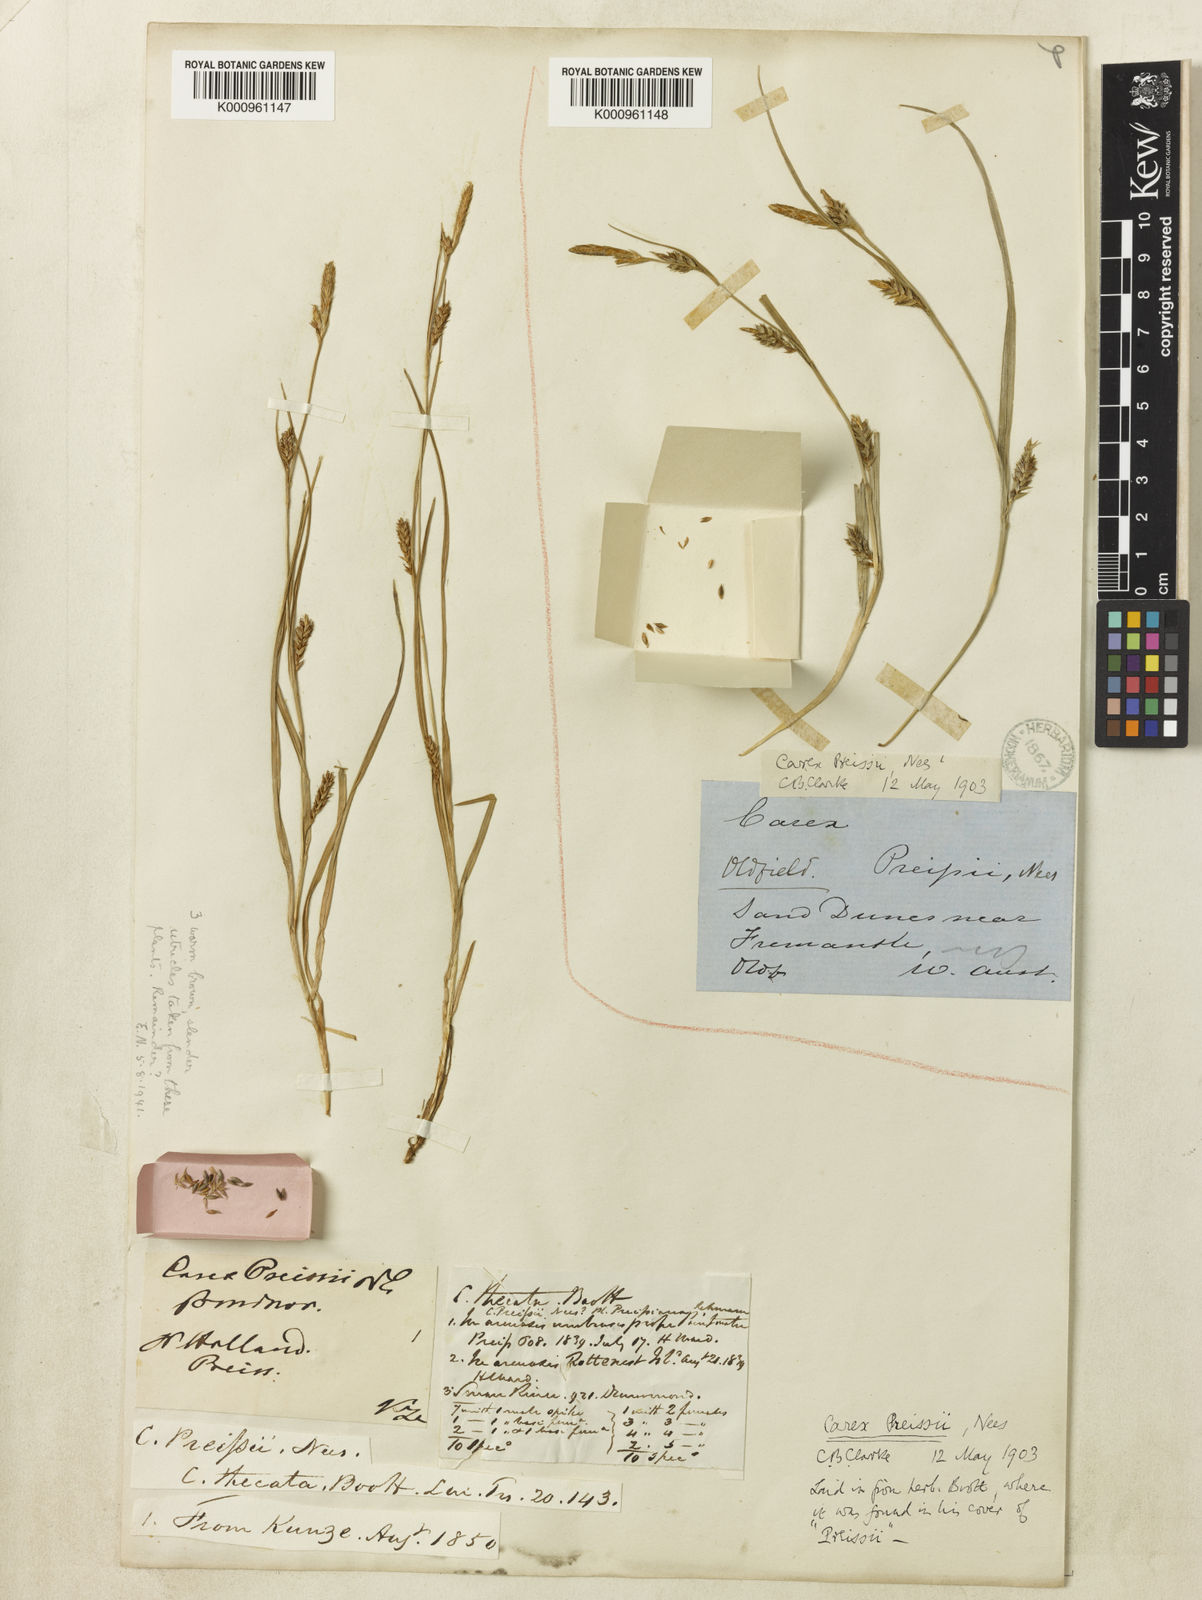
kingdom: Plantae
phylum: Tracheophyta
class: Liliopsida
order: Poales
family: Cyperaceae
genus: Carex
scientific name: Carex preissii
